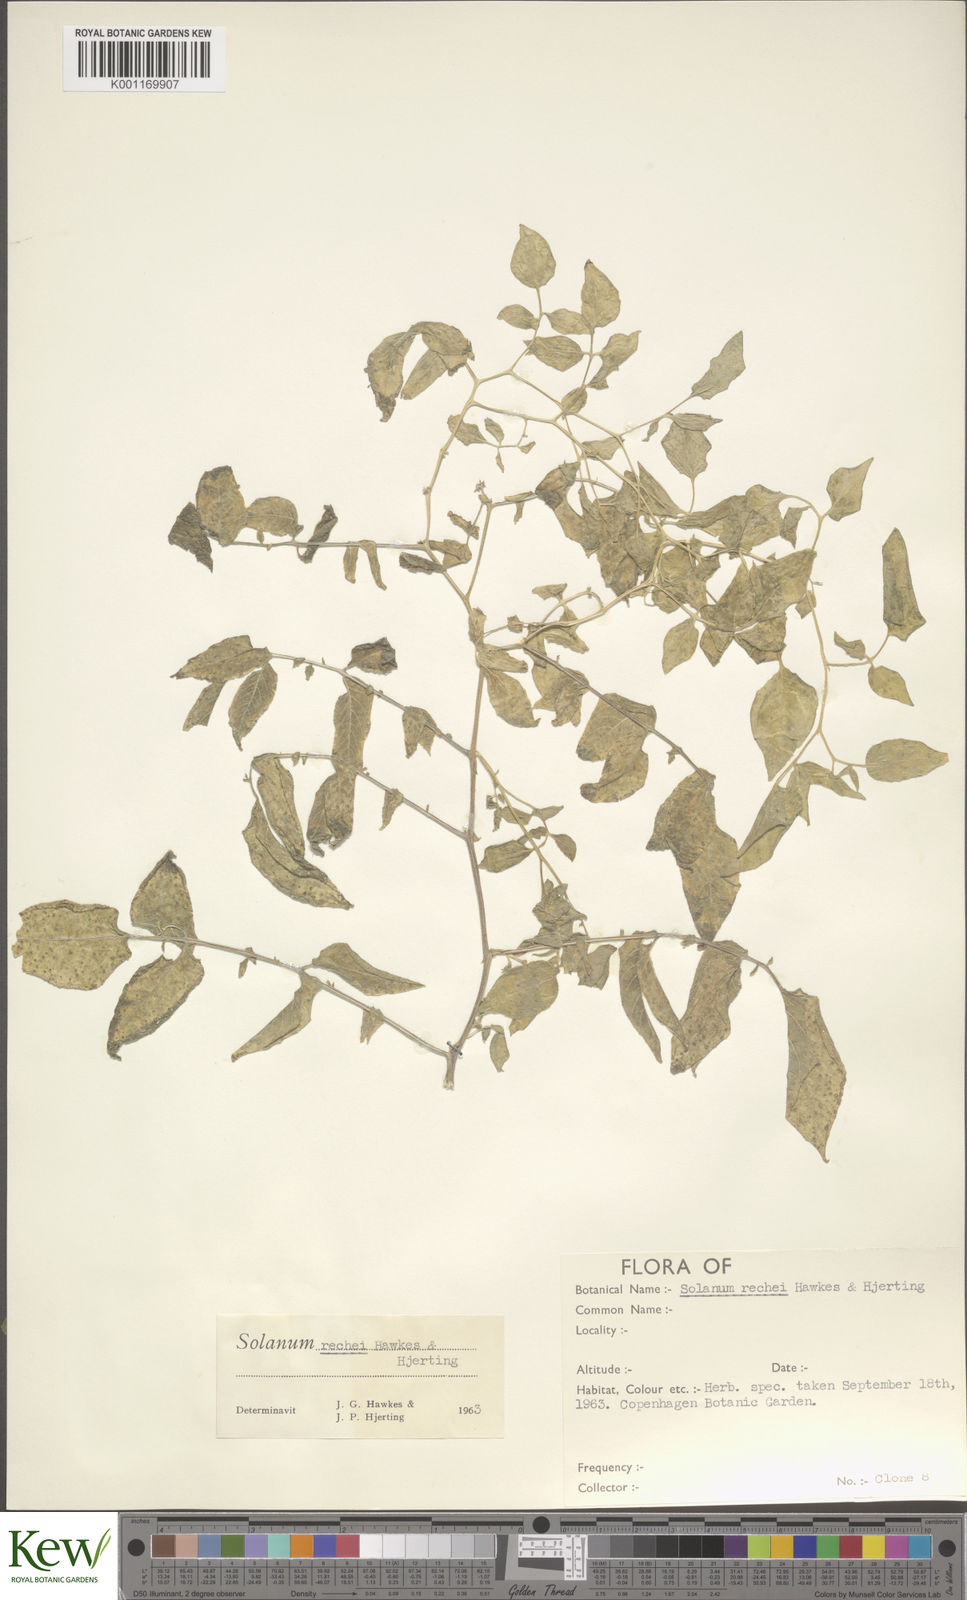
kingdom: Plantae
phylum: Tracheophyta
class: Magnoliopsida
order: Solanales
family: Solanaceae
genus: Solanum
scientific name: Solanum rechei
